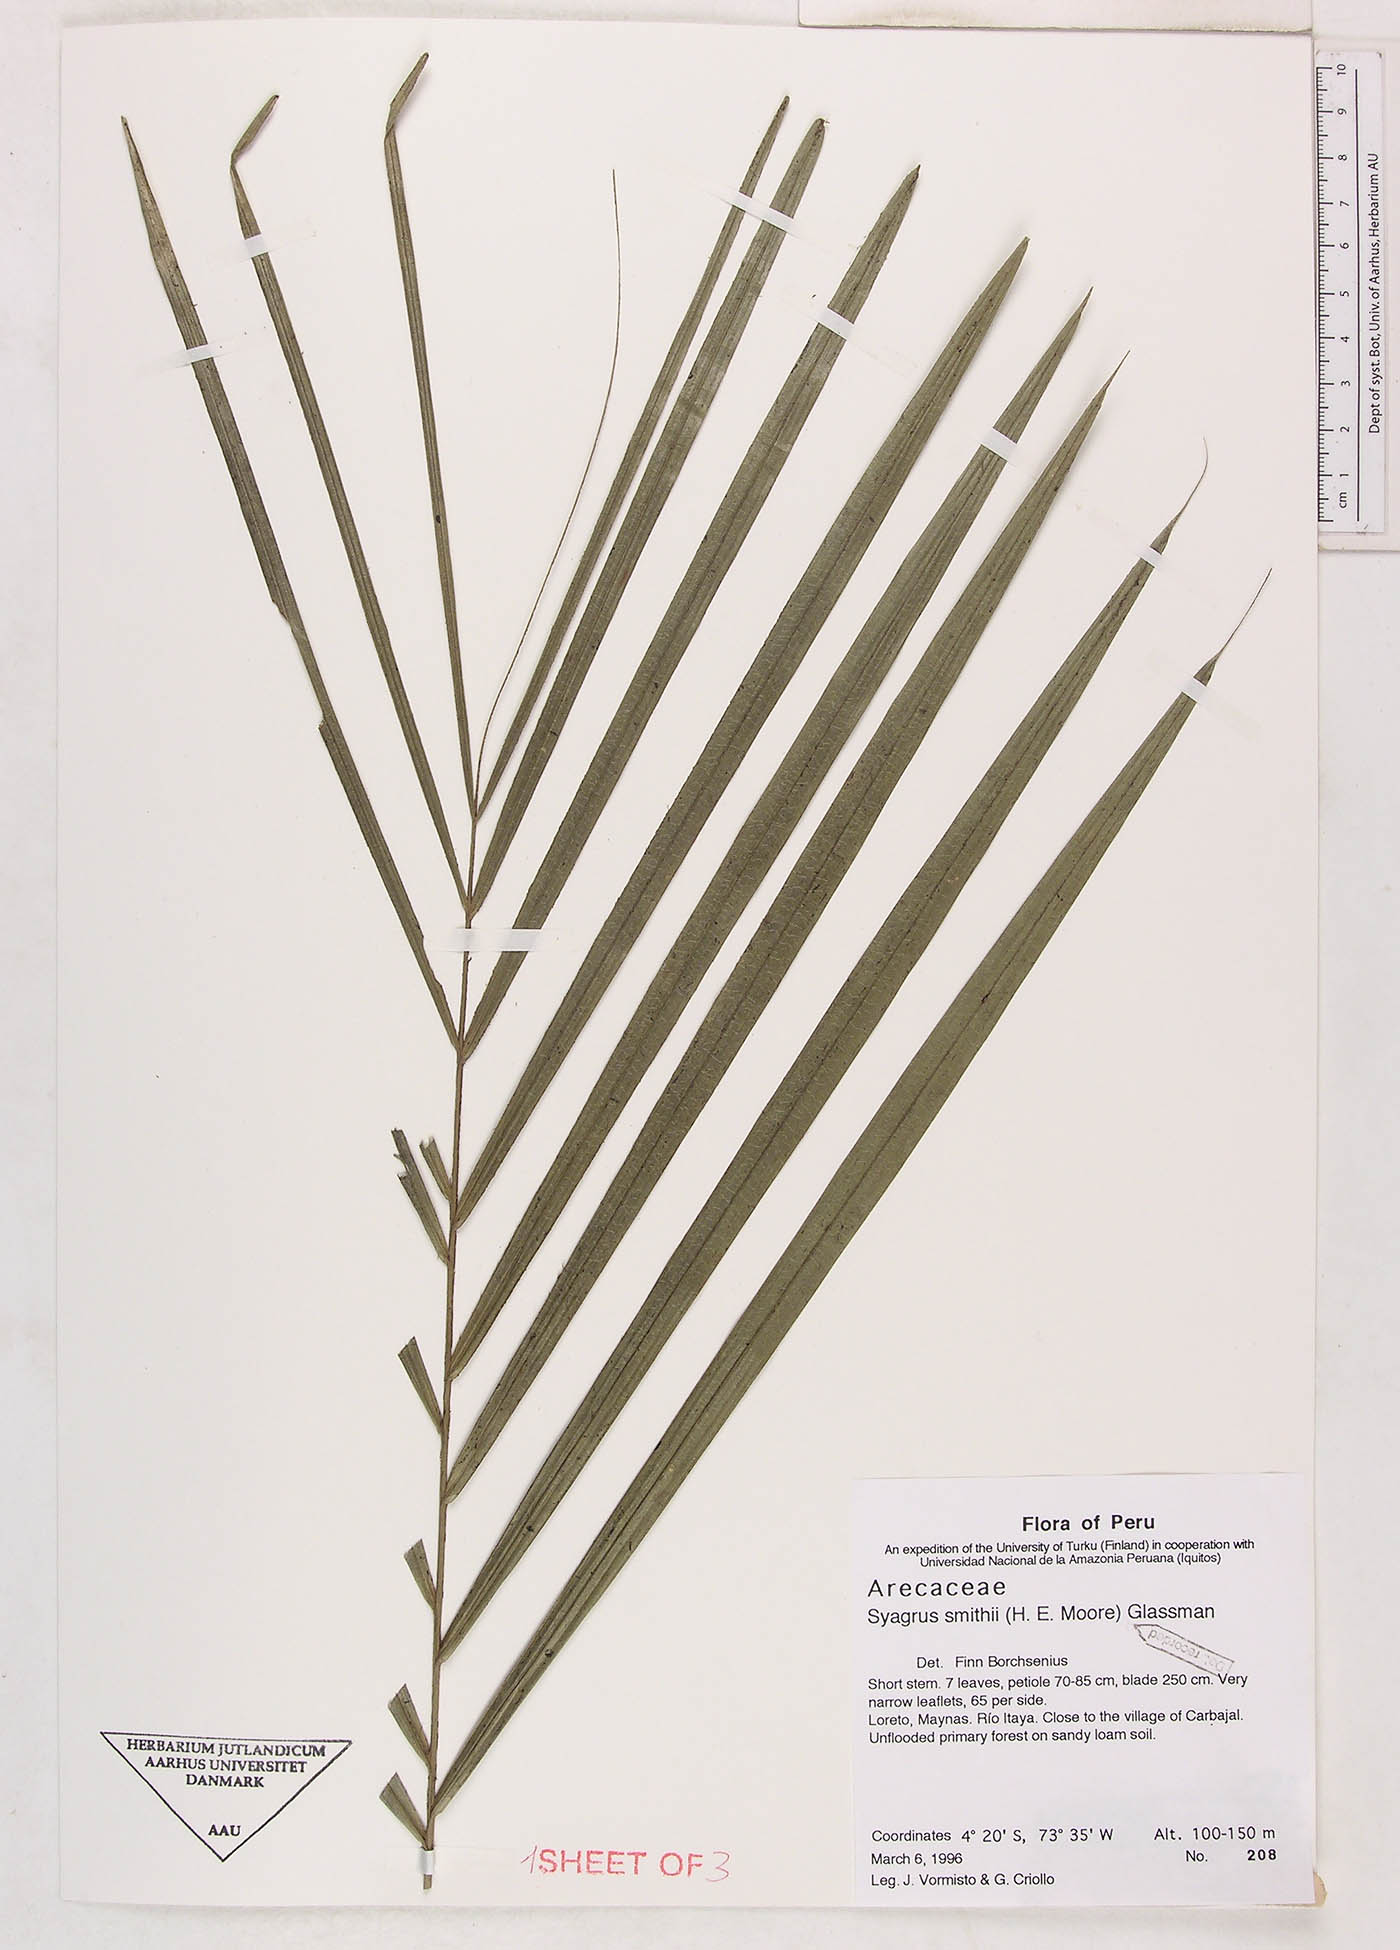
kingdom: Plantae
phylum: Tracheophyta
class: Liliopsida
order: Arecales
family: Arecaceae
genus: Syagrus
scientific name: Syagrus smithii
